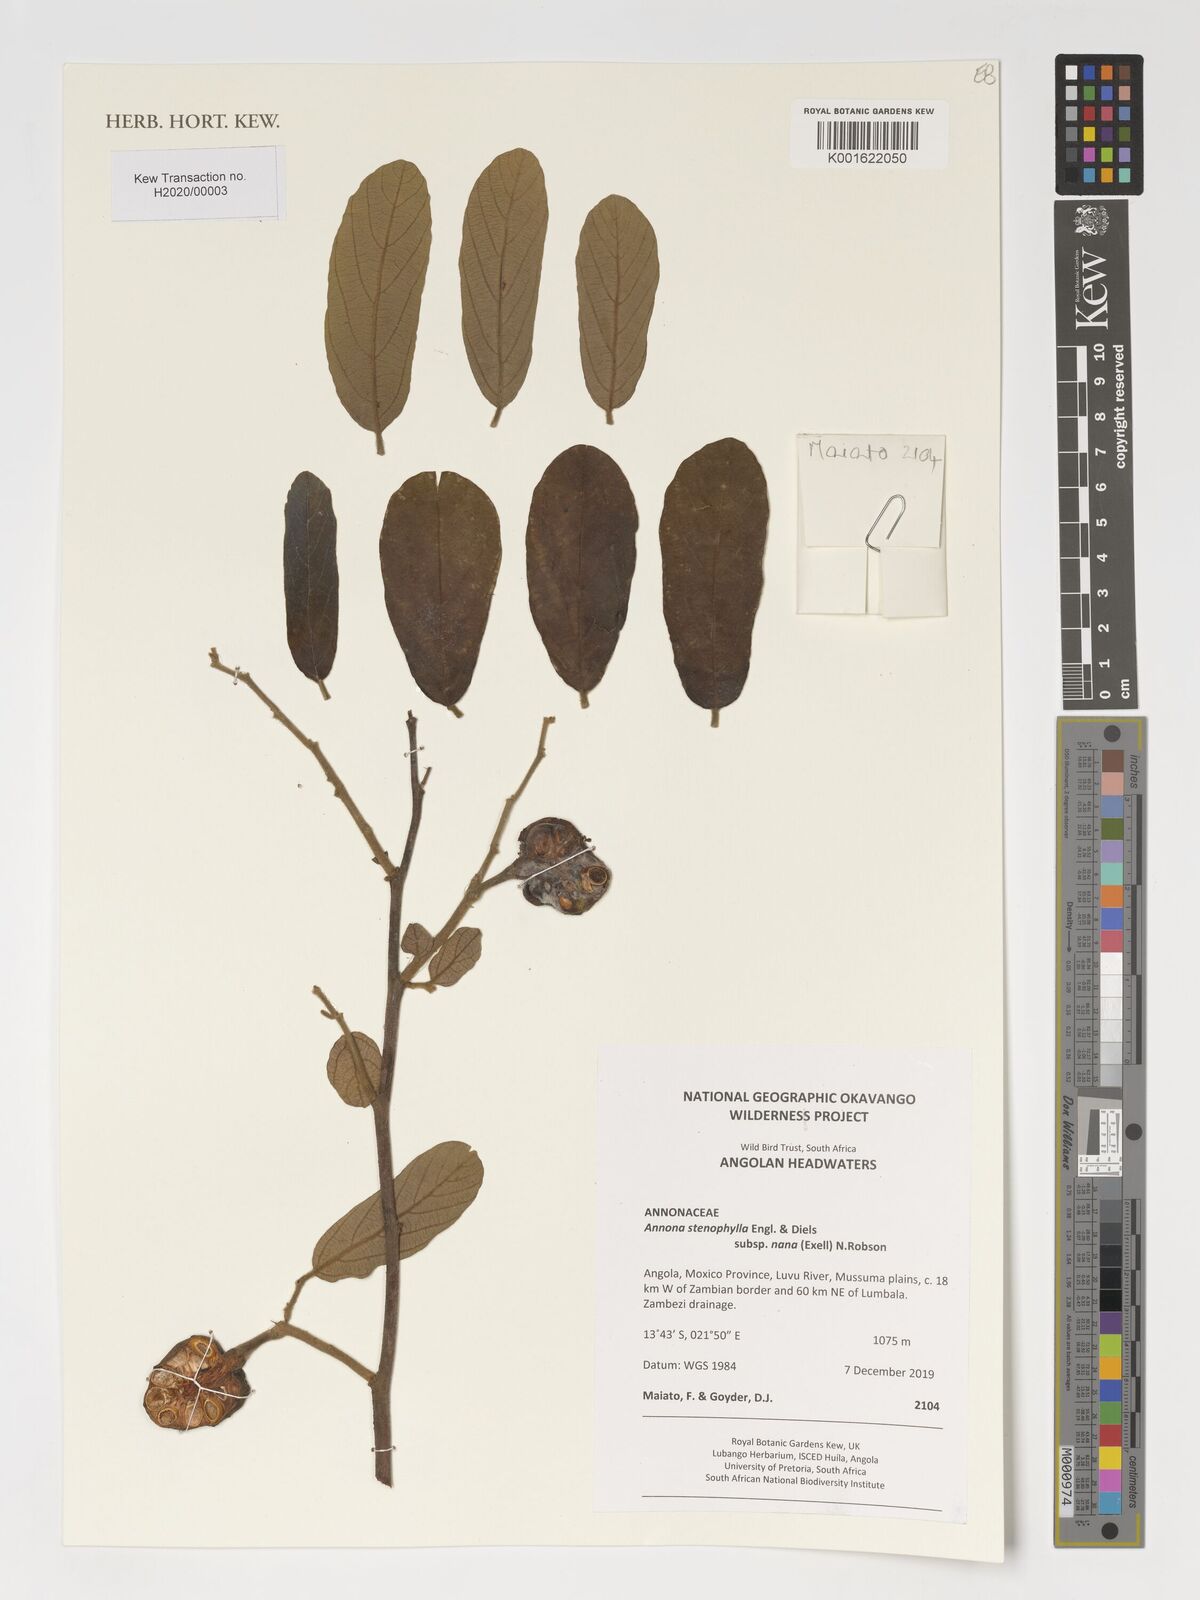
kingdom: Plantae
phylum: Tracheophyta
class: Magnoliopsida
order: Magnoliales
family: Annonaceae
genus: Annona
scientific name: Annona stenophylla
